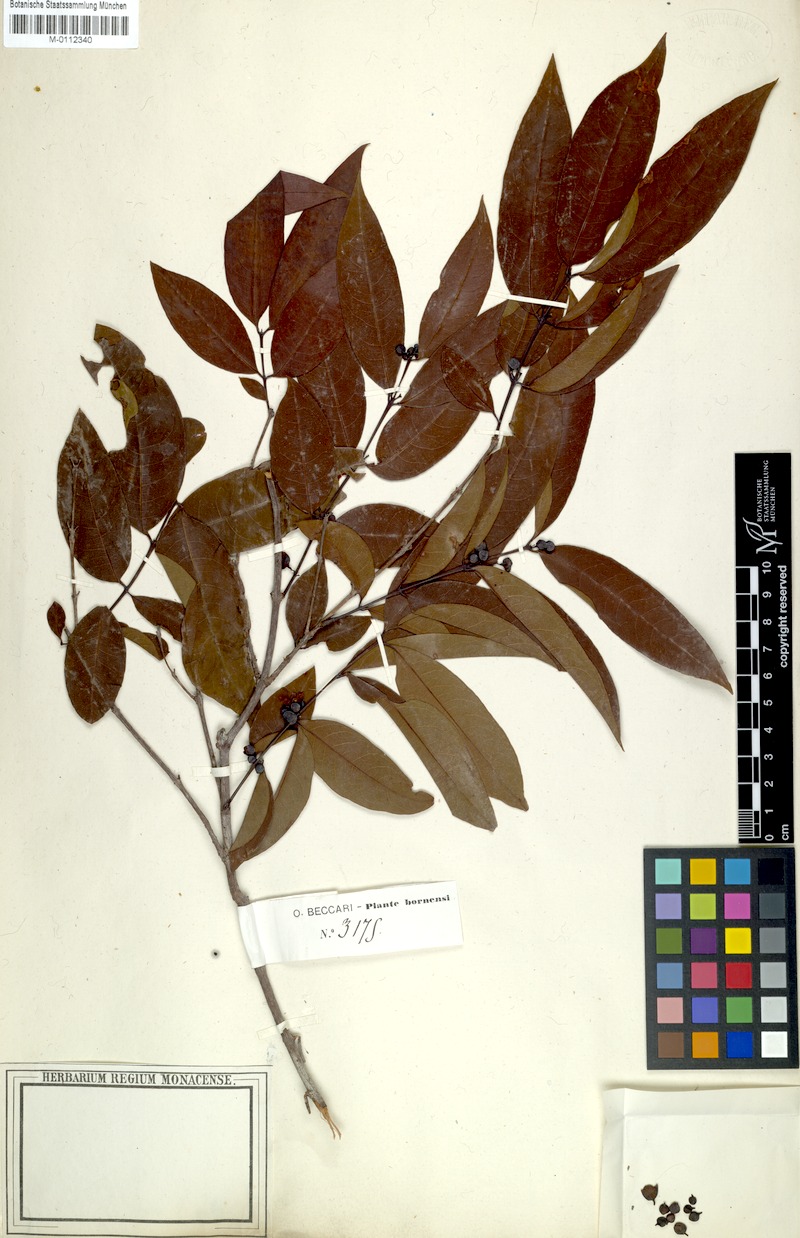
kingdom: Plantae
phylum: Tracheophyta
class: Magnoliopsida
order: Malpighiales
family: Hypericaceae
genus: Cratoxylum
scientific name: Cratoxylum cochinchinense
